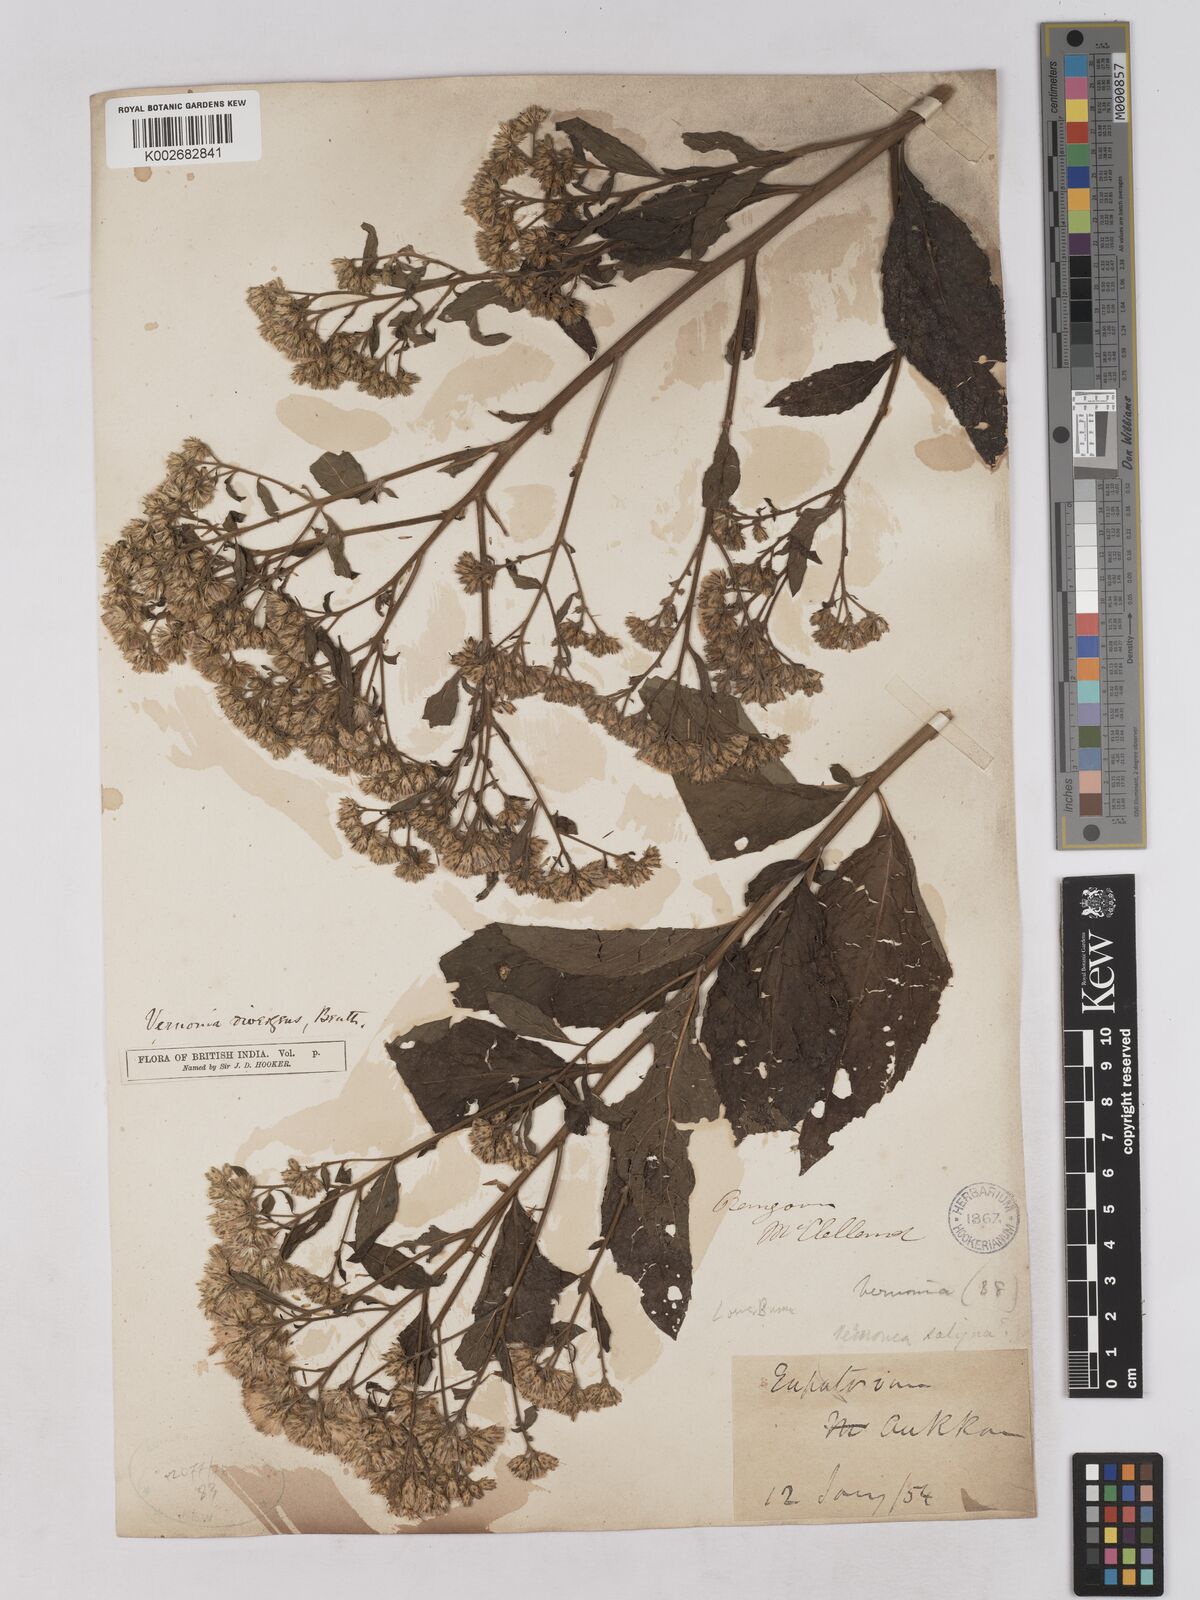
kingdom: Plantae
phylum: Tracheophyta
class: Magnoliopsida
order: Asterales
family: Asteraceae
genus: Acilepis
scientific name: Acilepis divergens
